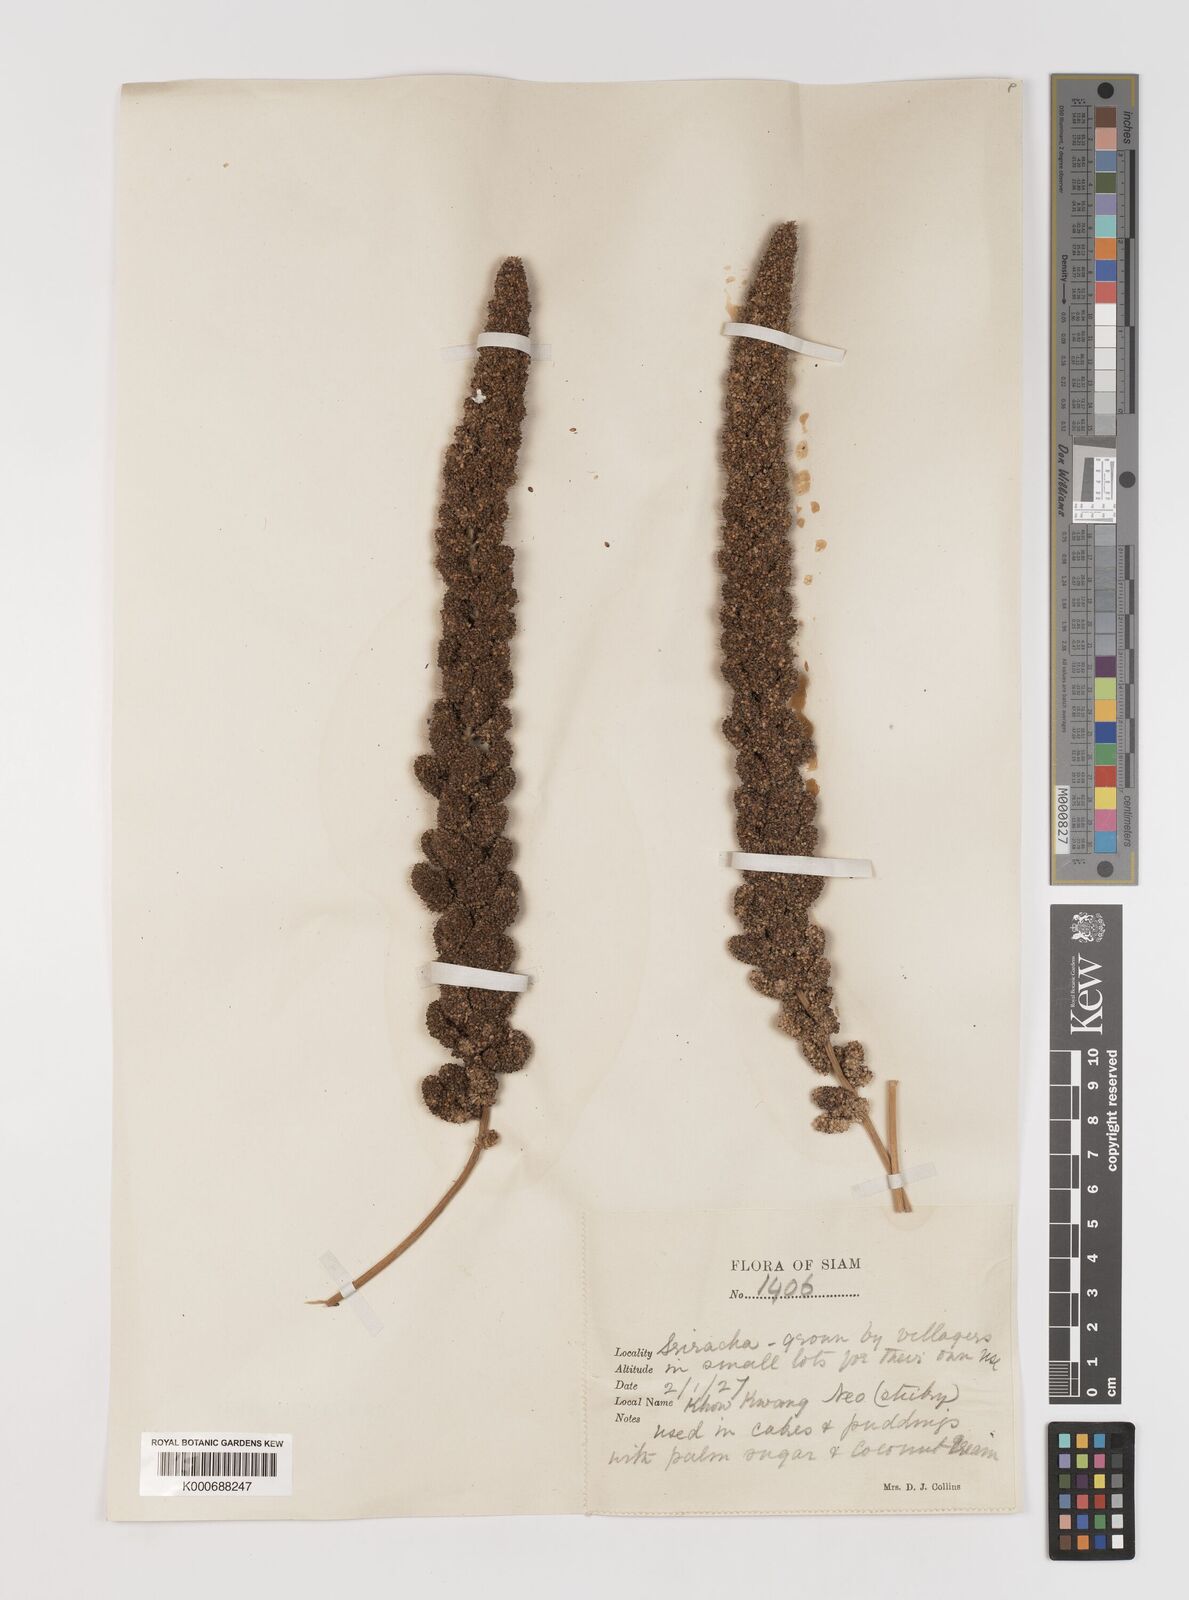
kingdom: Plantae
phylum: Tracheophyta
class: Liliopsida
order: Poales
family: Poaceae
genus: Setaria
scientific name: Setaria italica
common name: Foxtail bristle-grass
